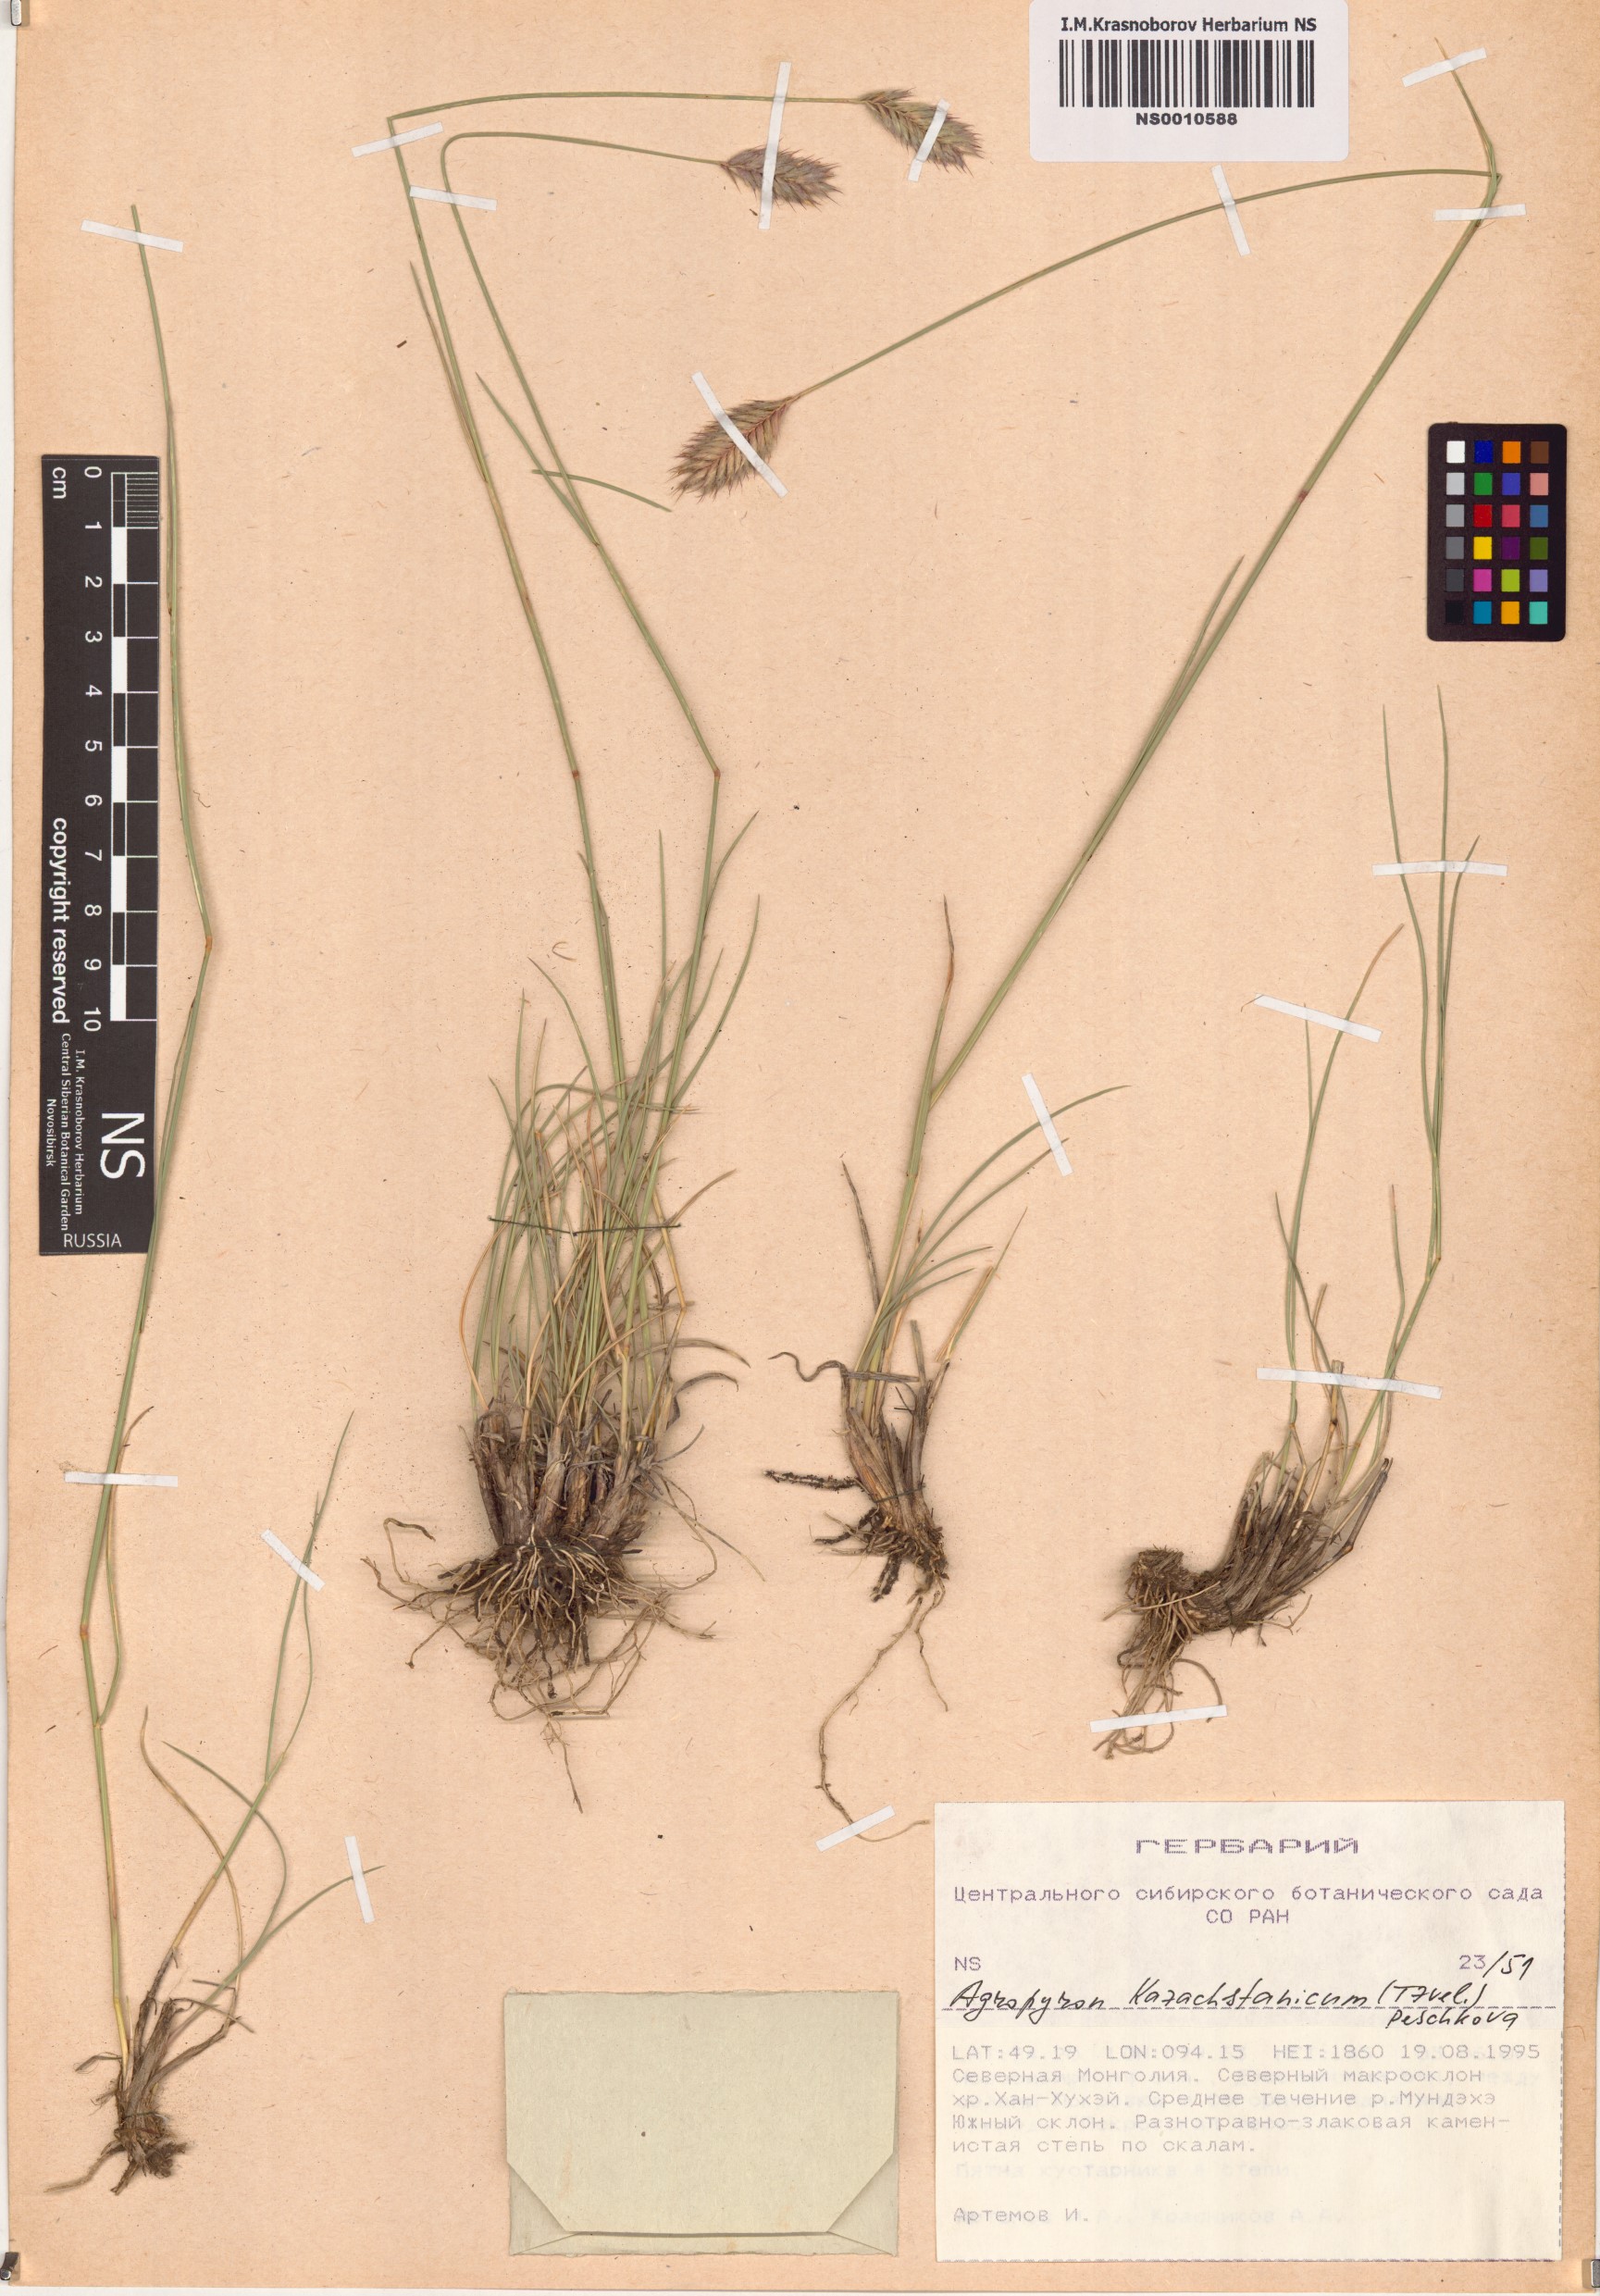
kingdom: Plantae
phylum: Tracheophyta
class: Liliopsida
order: Poales
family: Poaceae
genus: Agropyron
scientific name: Agropyron cristatum
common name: Crested wheatgrass
